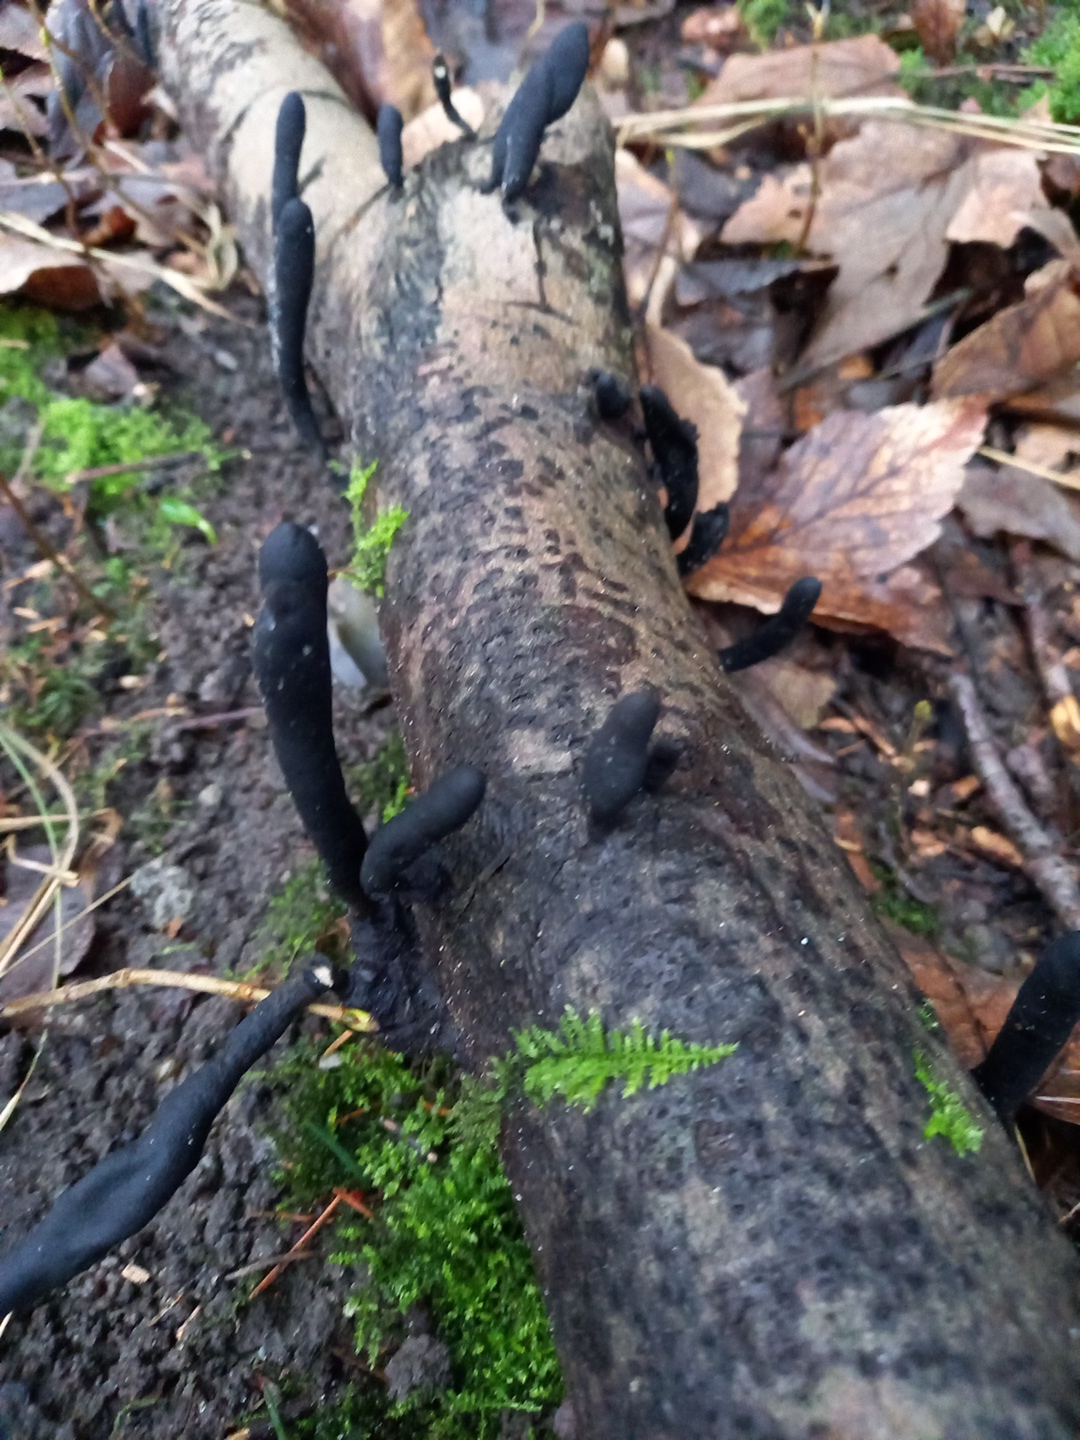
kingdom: Fungi
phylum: Ascomycota
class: Sordariomycetes
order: Xylariales
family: Xylariaceae
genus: Xylaria
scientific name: Xylaria longipes
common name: slank stødsvamp
